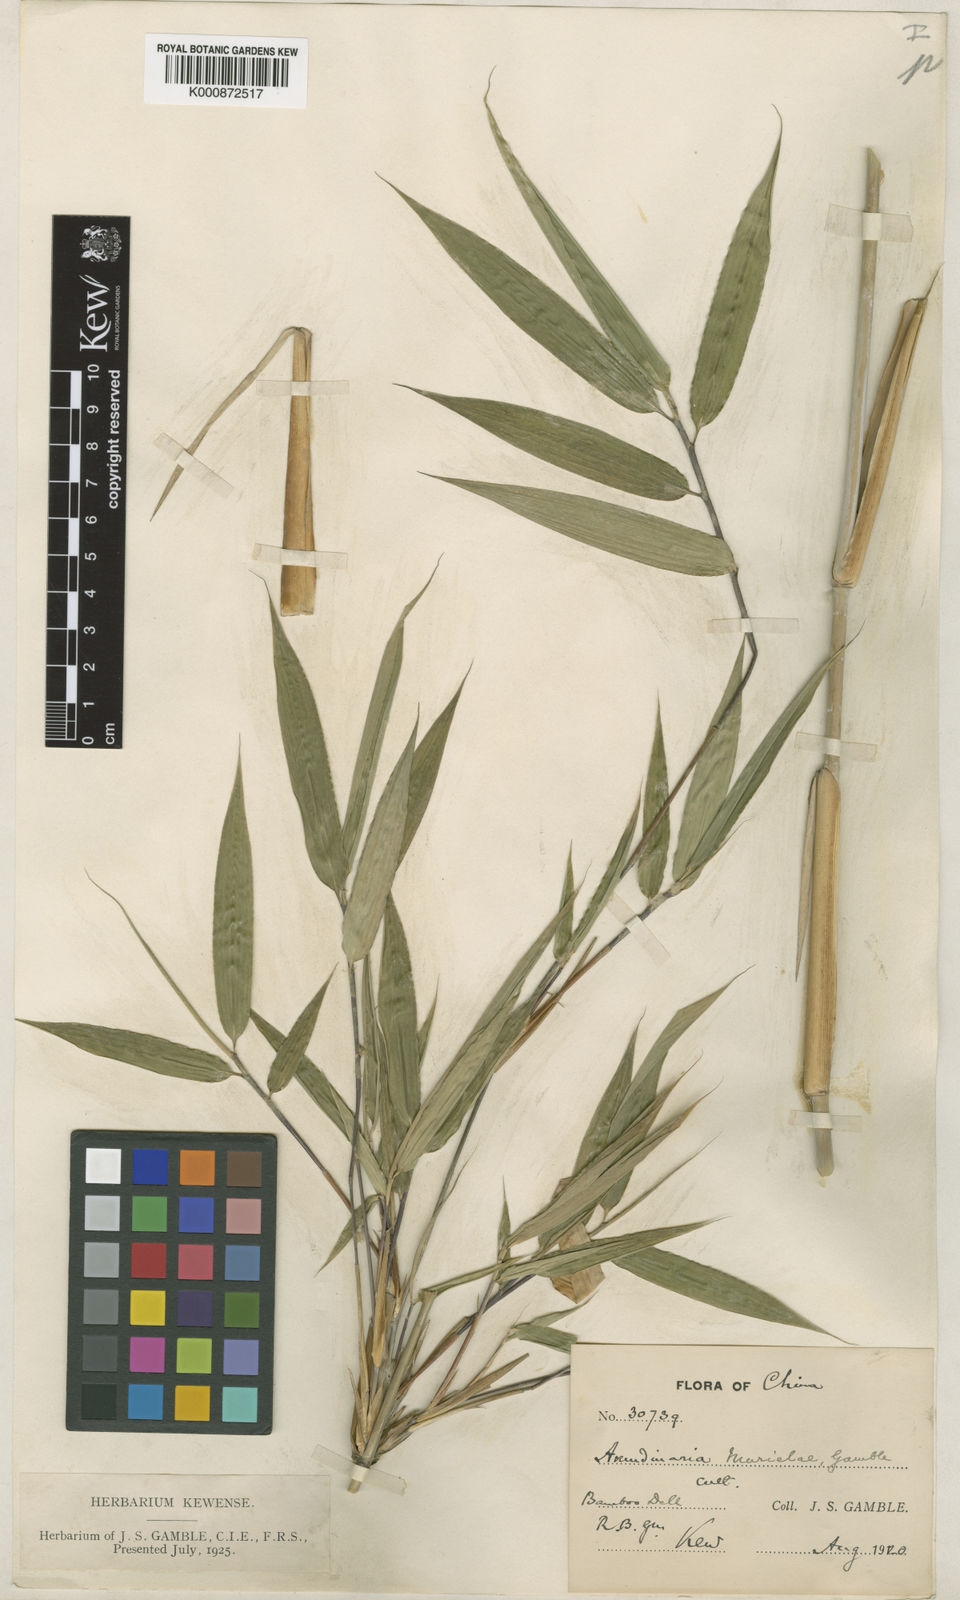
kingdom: Plantae
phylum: Tracheophyta
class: Liliopsida
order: Poales
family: Poaceae
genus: Fargesia
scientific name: Fargesia murielae
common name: Umbrella bamboo
